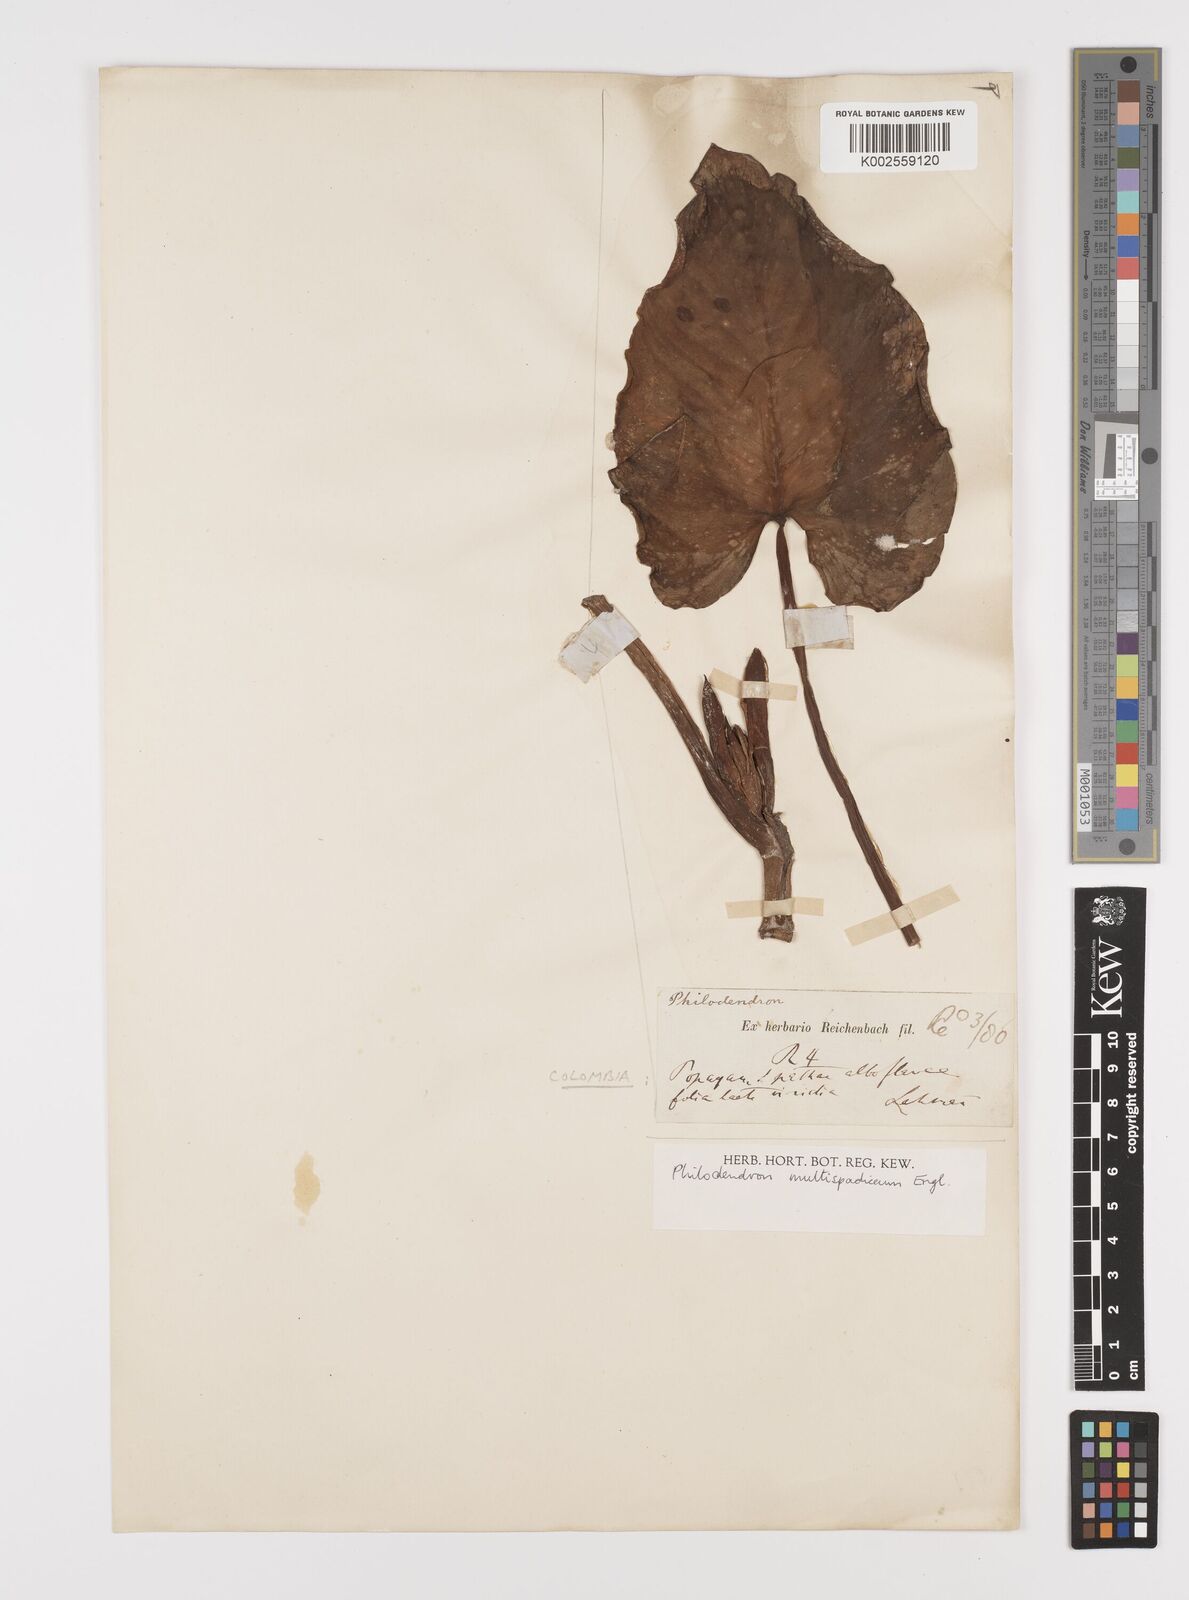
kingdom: Plantae
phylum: Tracheophyta
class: Liliopsida
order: Alismatales
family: Araceae
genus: Philodendron
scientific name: Philodendron multispadiceum
